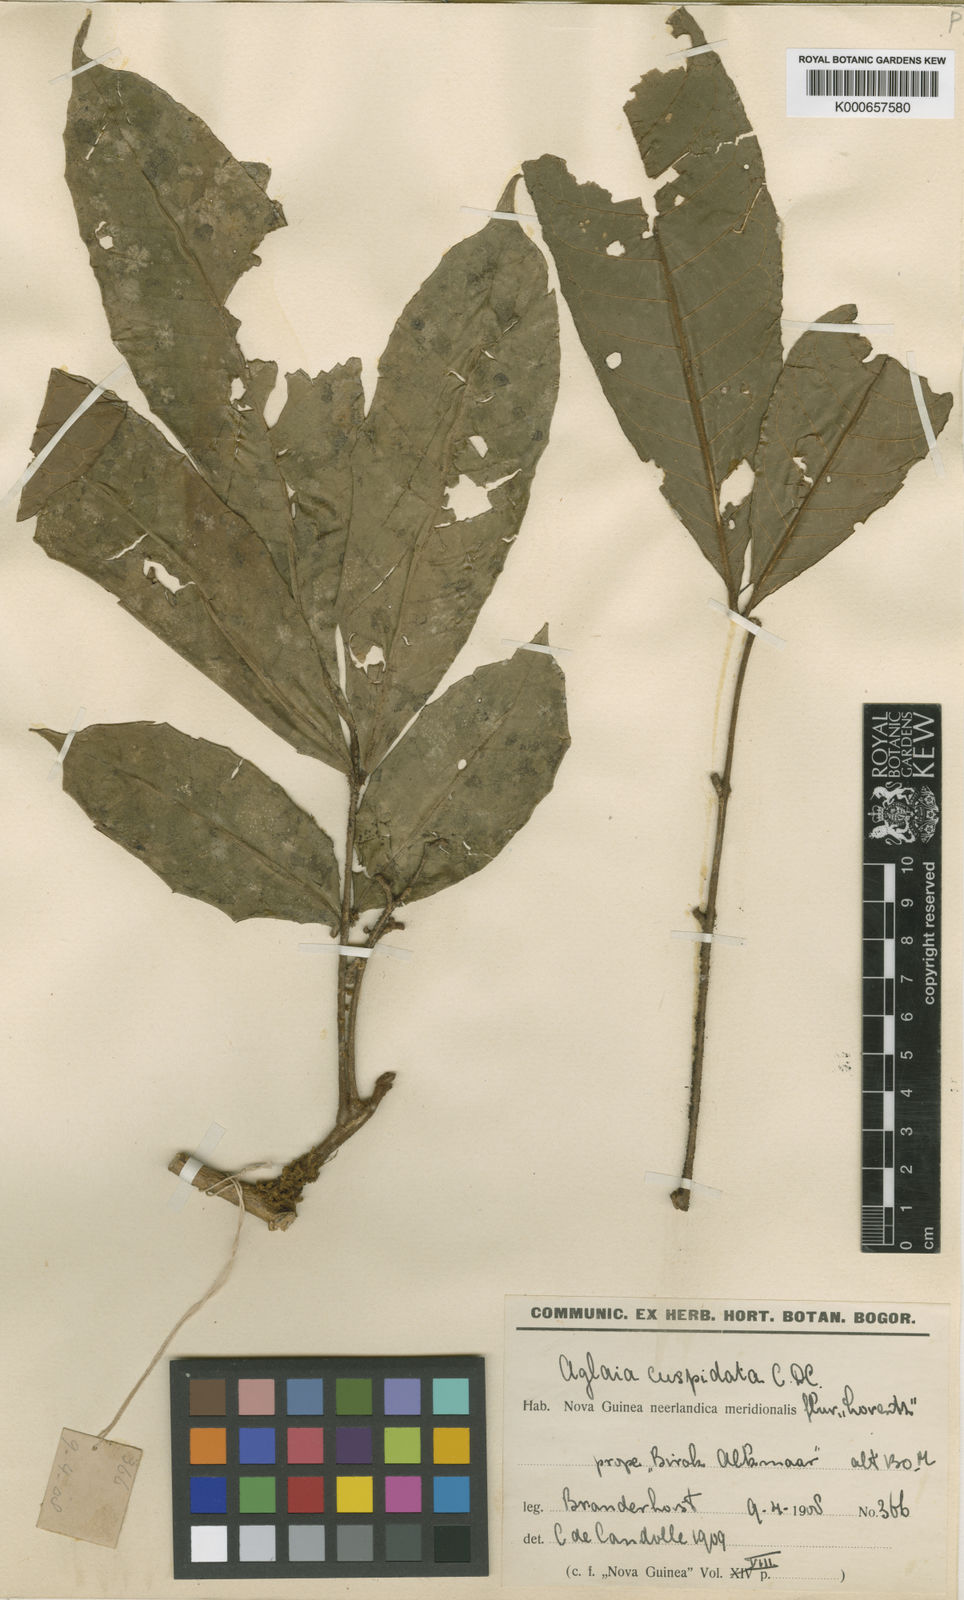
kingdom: Plantae
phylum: Tracheophyta
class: Magnoliopsida
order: Sapindales
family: Meliaceae
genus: Aglaia
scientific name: Aglaia subminutiflora
